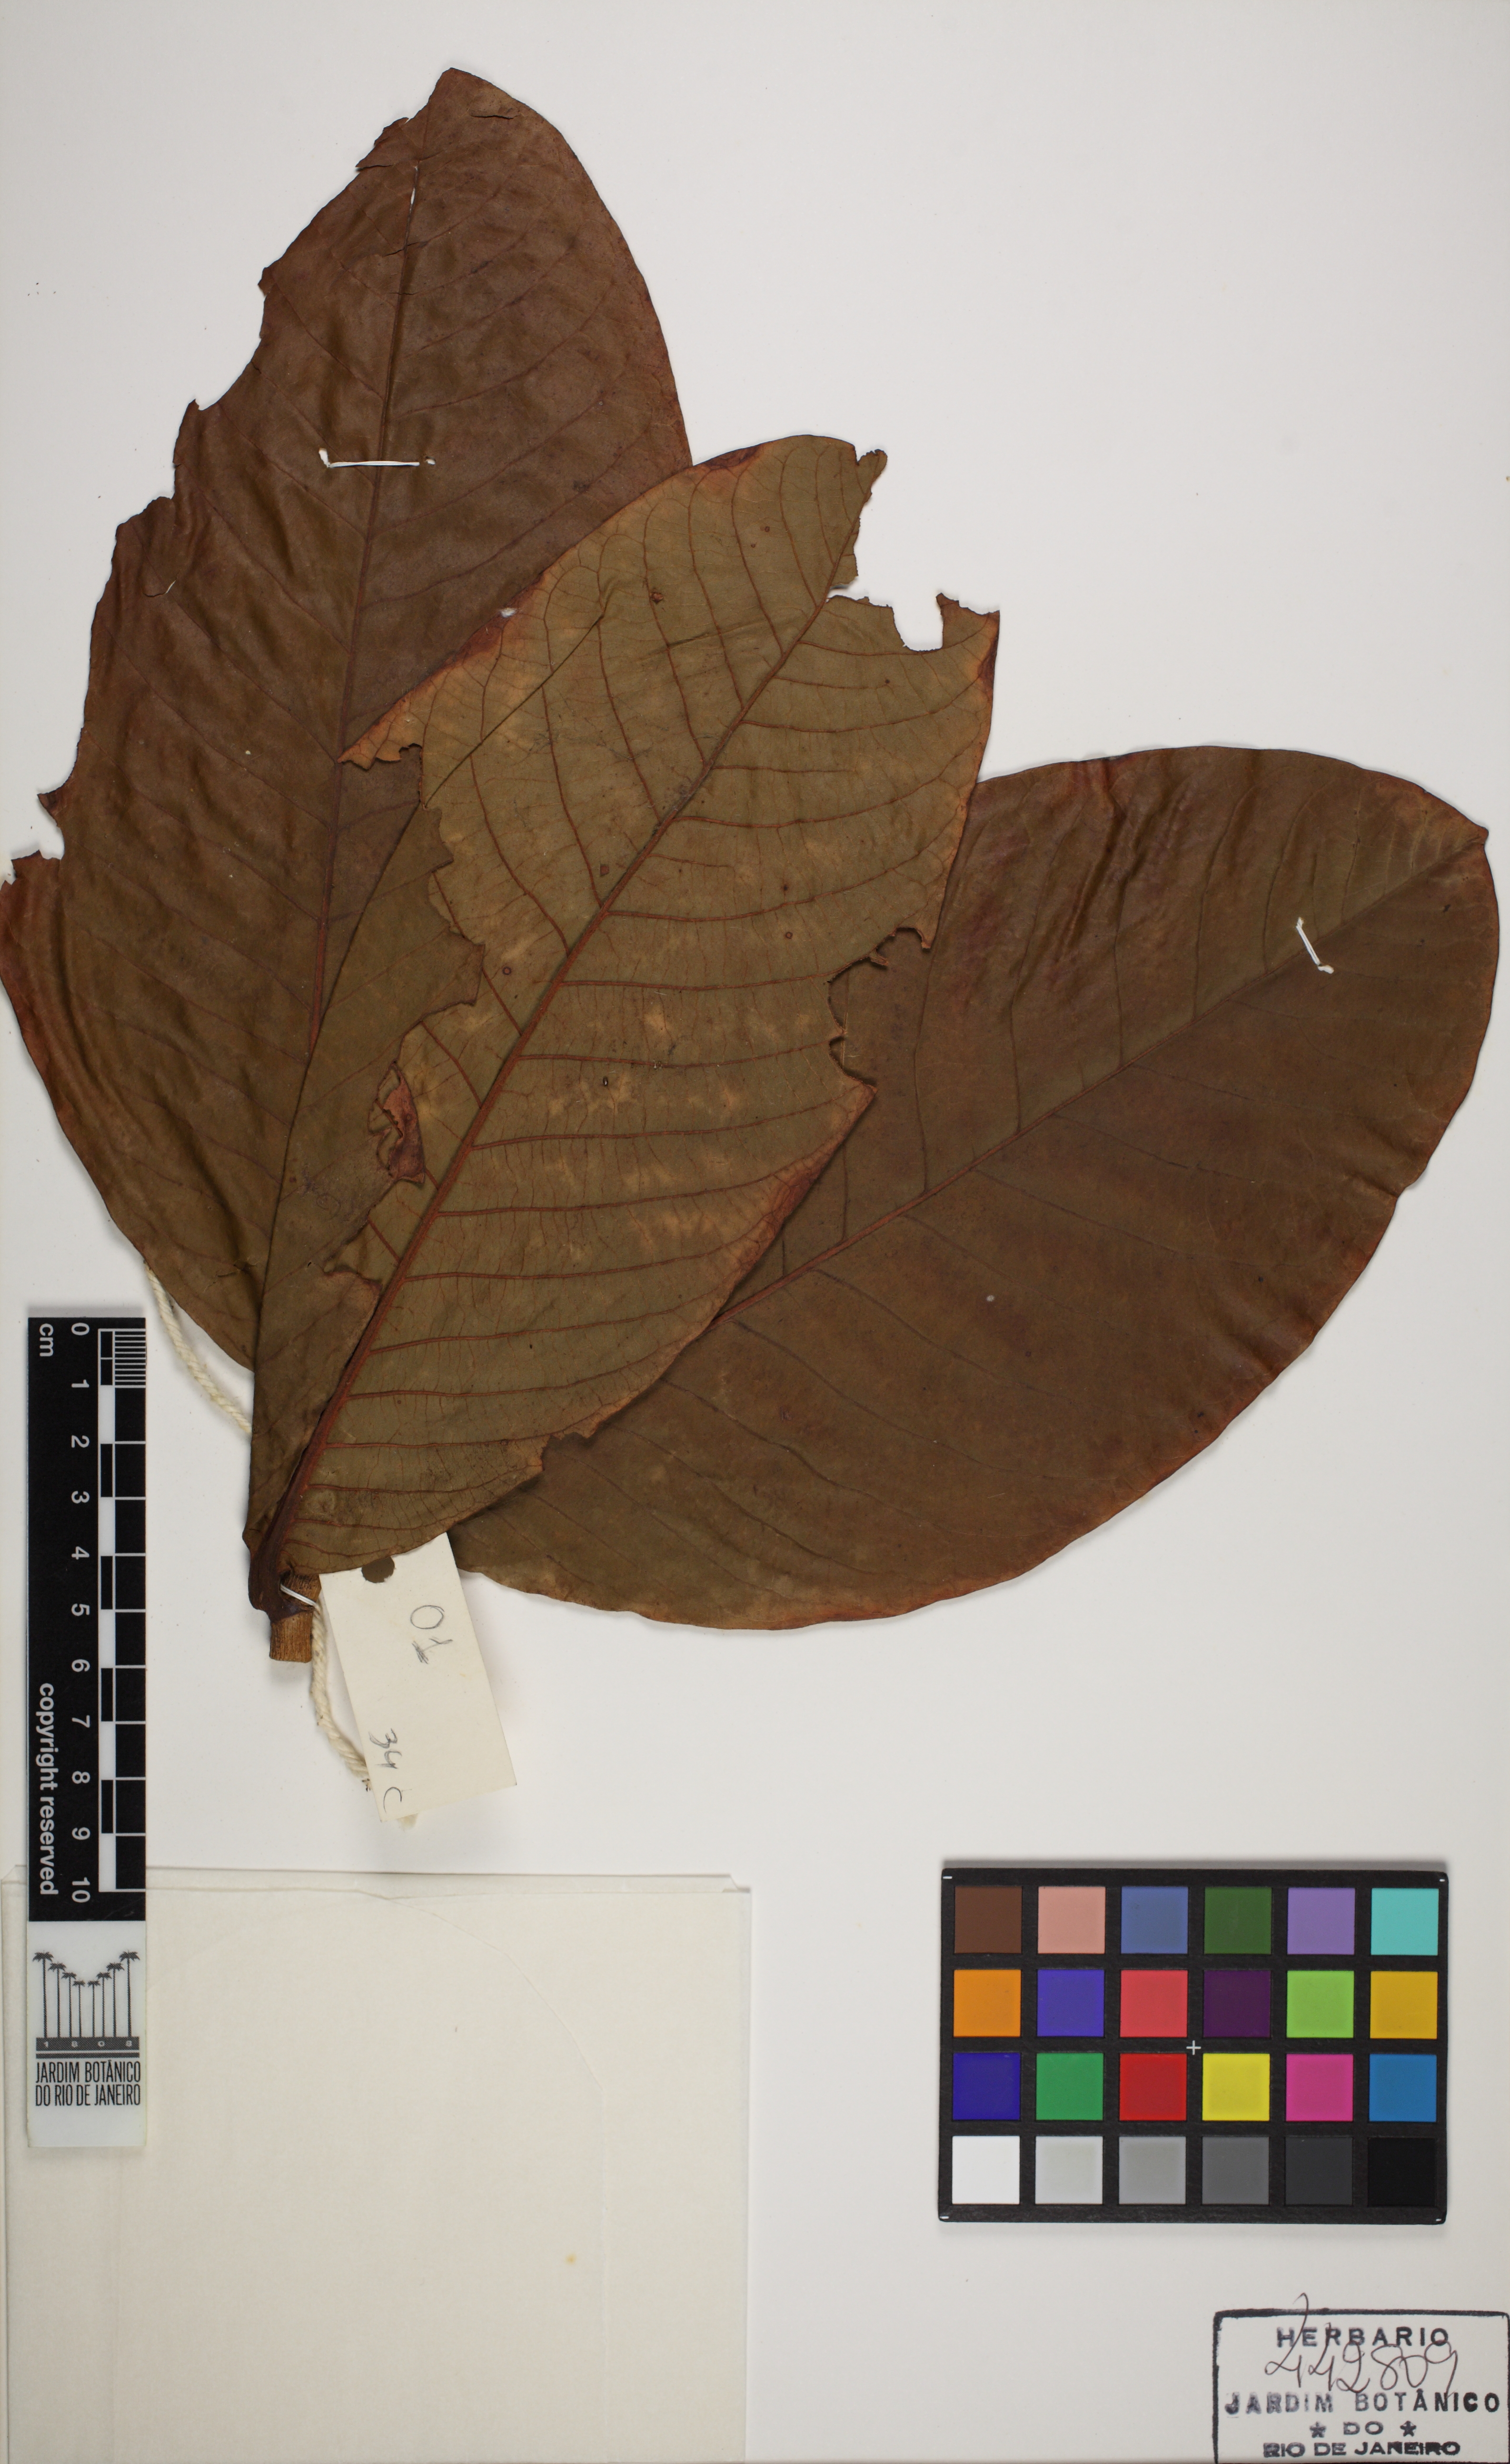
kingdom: Plantae
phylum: Tracheophyta
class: Magnoliopsida
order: Caryophyllales
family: Polygonaceae
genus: Triplaris
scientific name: Triplaris caracasana
